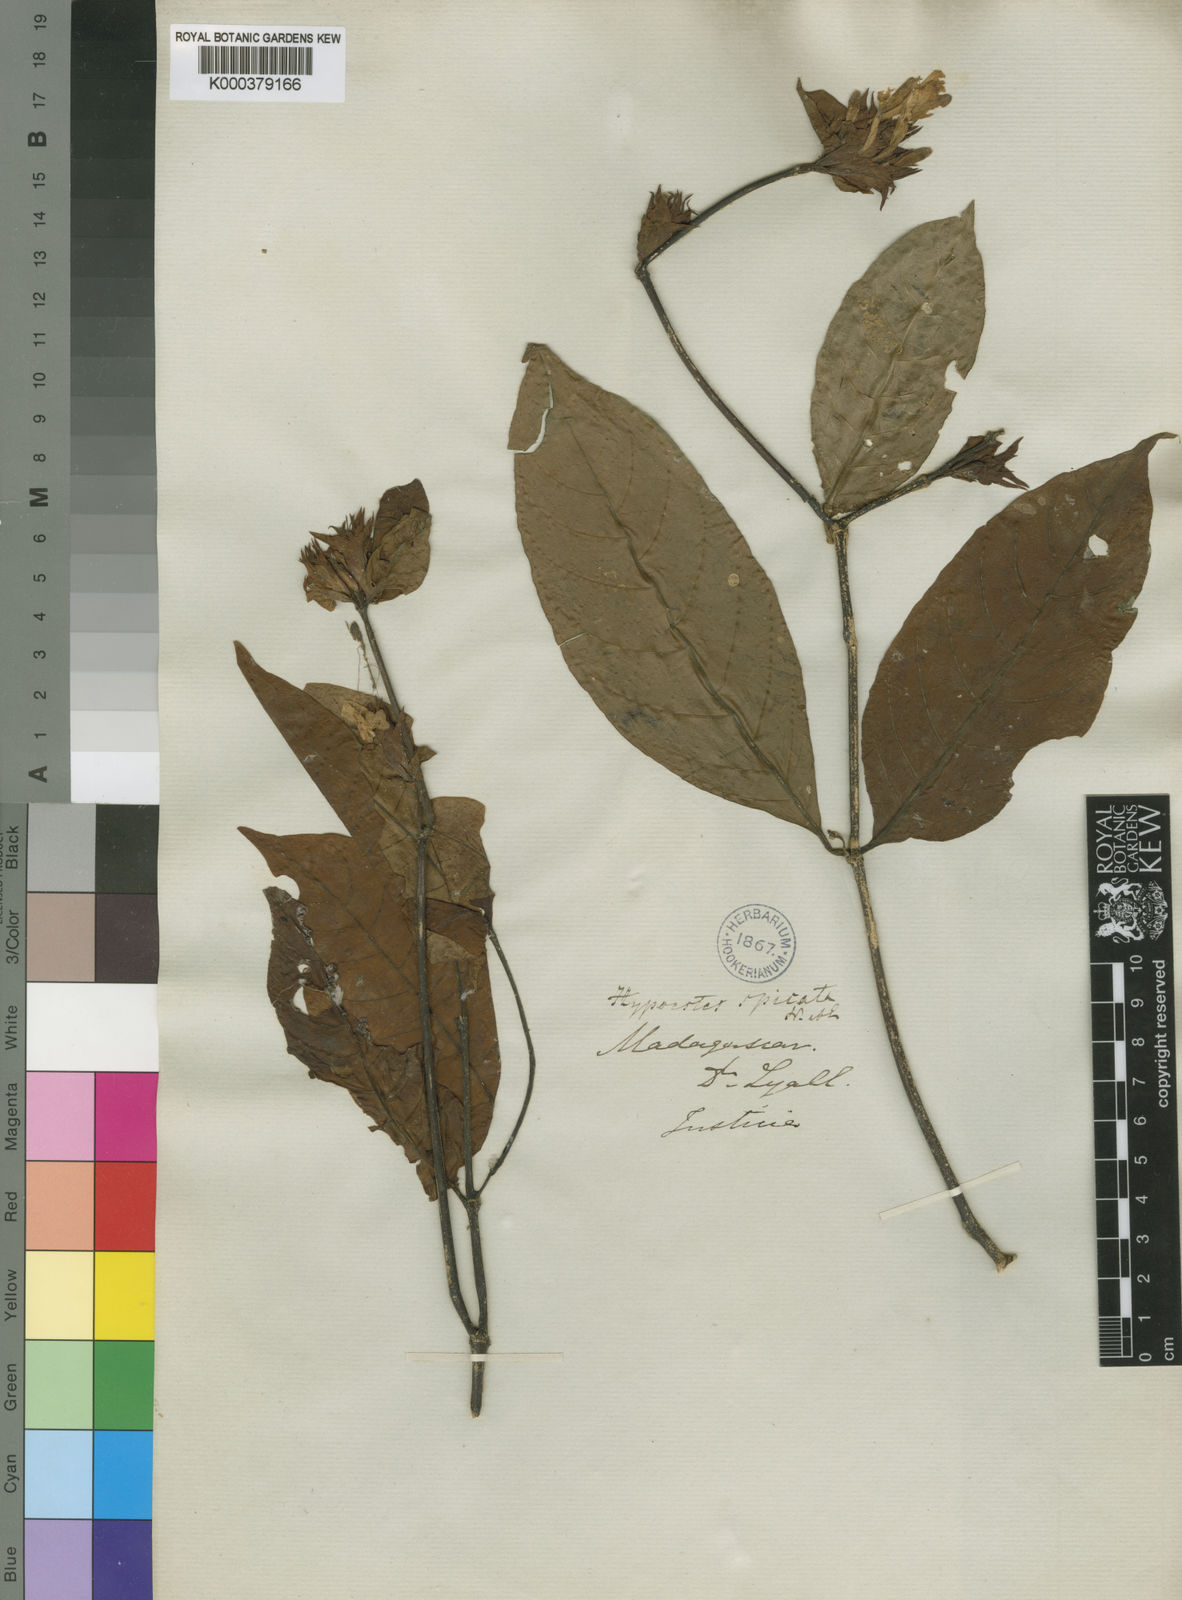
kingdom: Plantae
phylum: Tracheophyta
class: Magnoliopsida
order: Lamiales
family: Acanthaceae
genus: Hypoestes
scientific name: Hypoestes spicata
